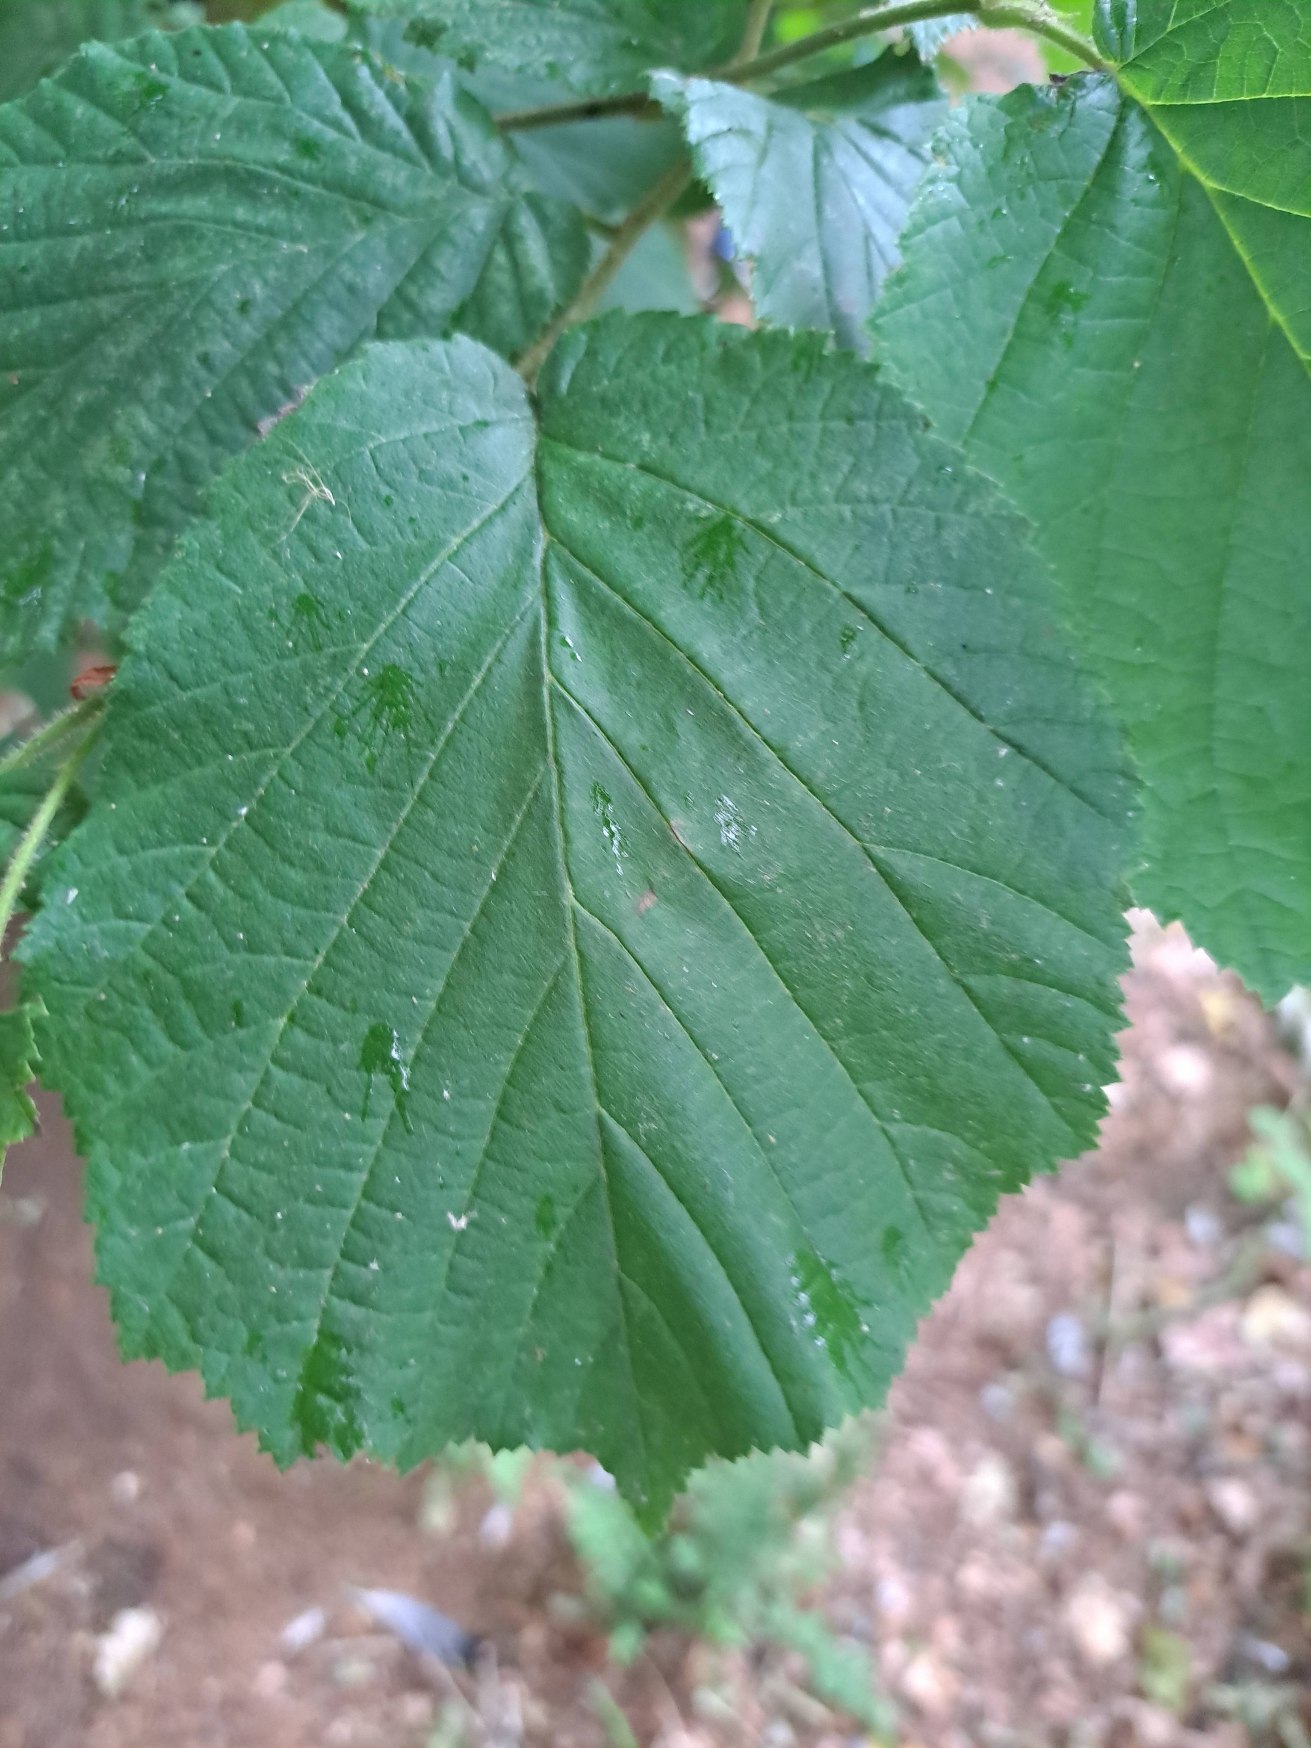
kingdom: Plantae
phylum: Tracheophyta
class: Magnoliopsida
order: Fagales
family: Betulaceae
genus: Corylus
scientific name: Corylus avellana
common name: Hassel
